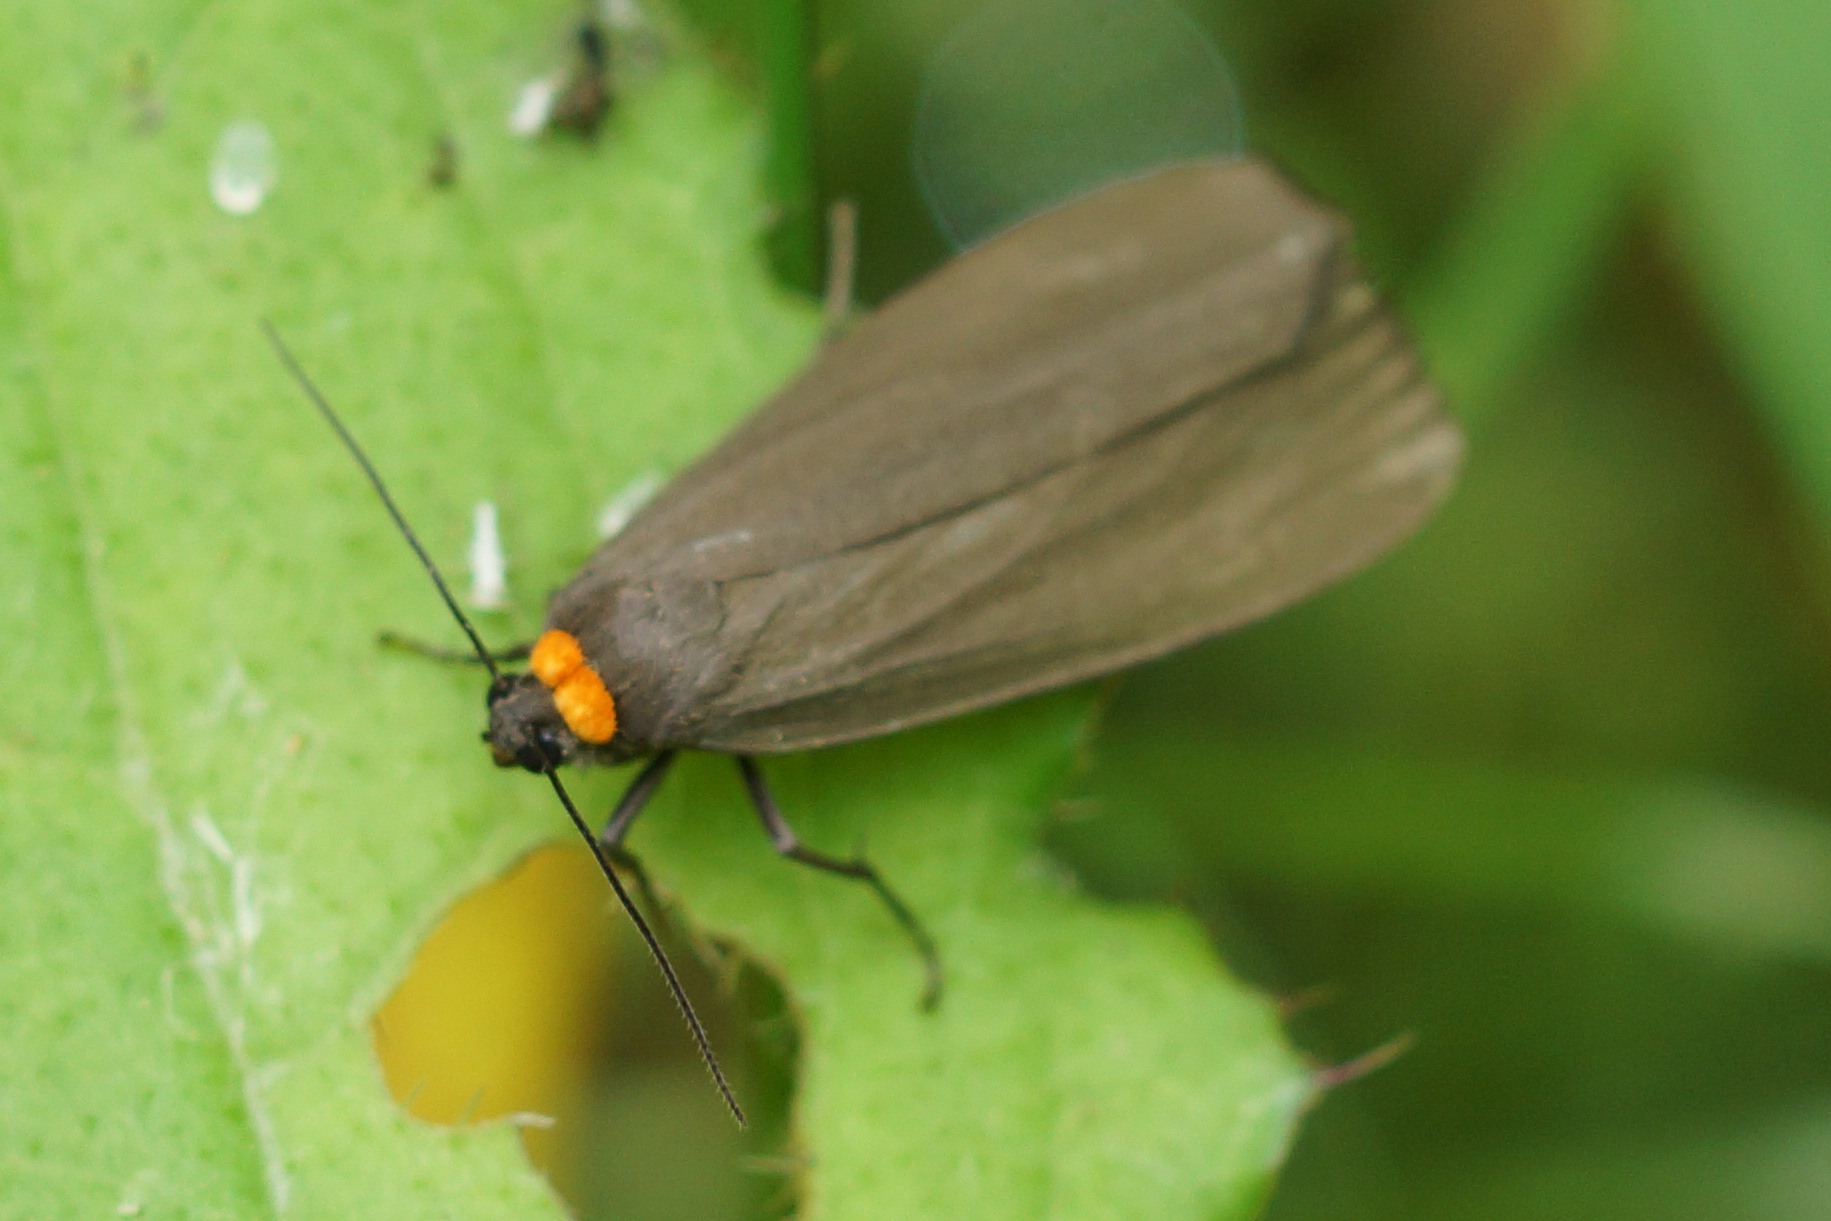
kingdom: Animalia
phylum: Arthropoda
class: Insecta
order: Lepidoptera
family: Erebidae
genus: Atolmis
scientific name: Atolmis rubricollis
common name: Blodnakke
